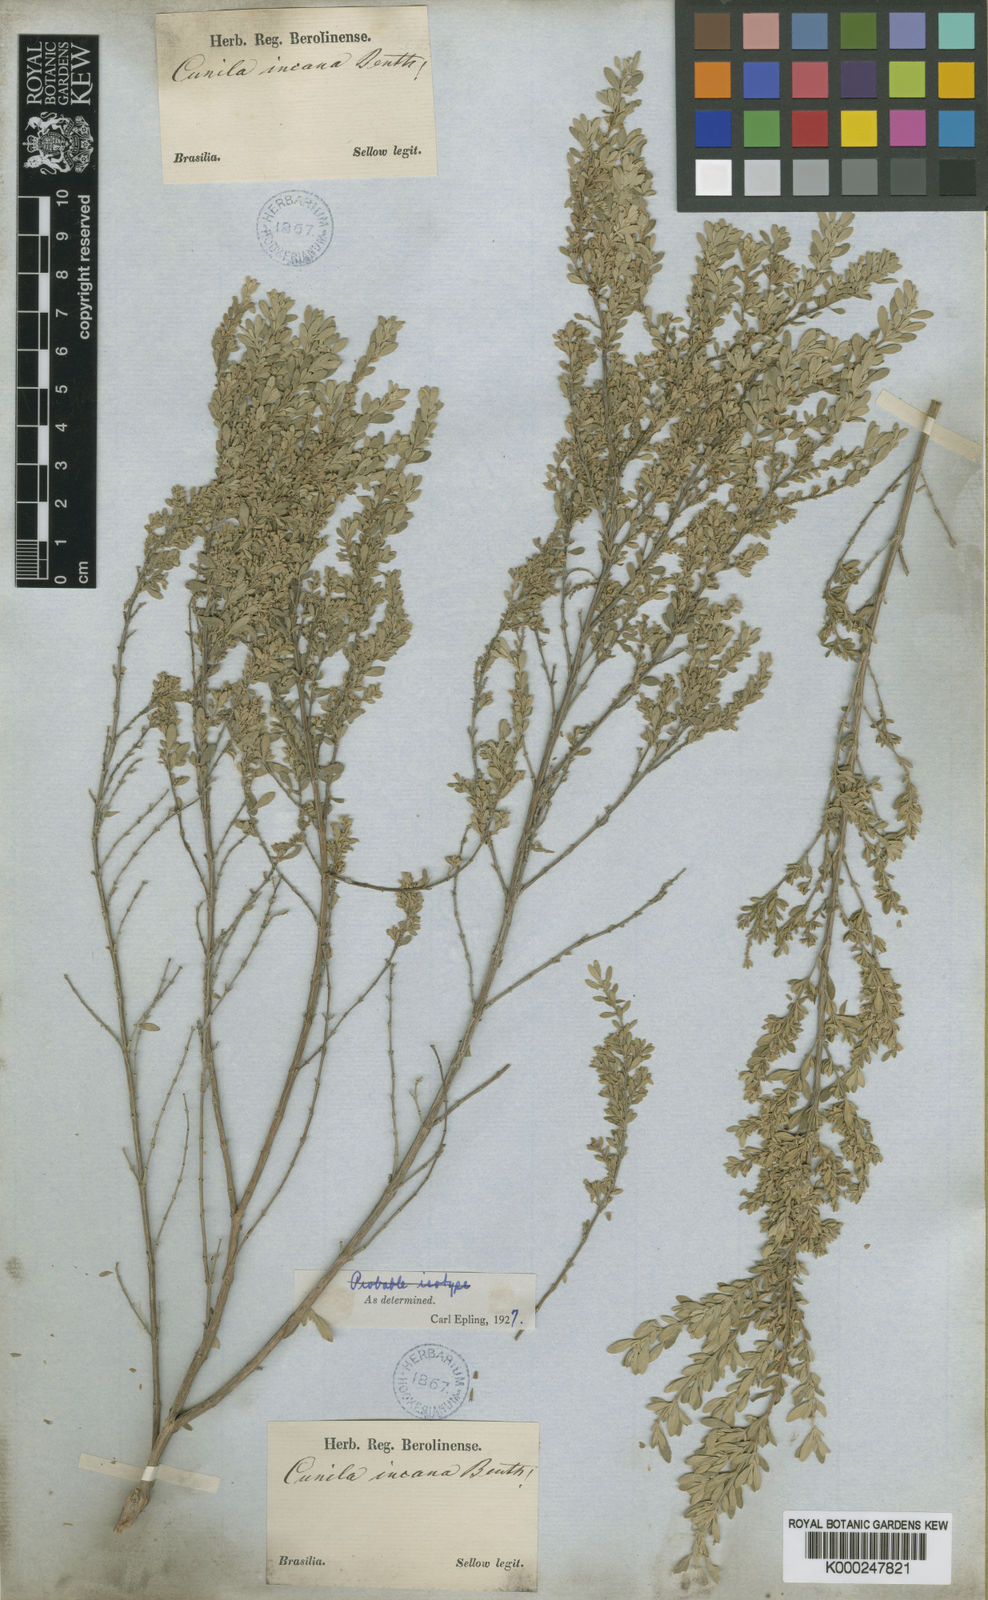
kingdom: Plantae
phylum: Tracheophyta
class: Magnoliopsida
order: Lamiales
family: Lamiaceae
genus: Cunila
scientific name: Cunila incana
